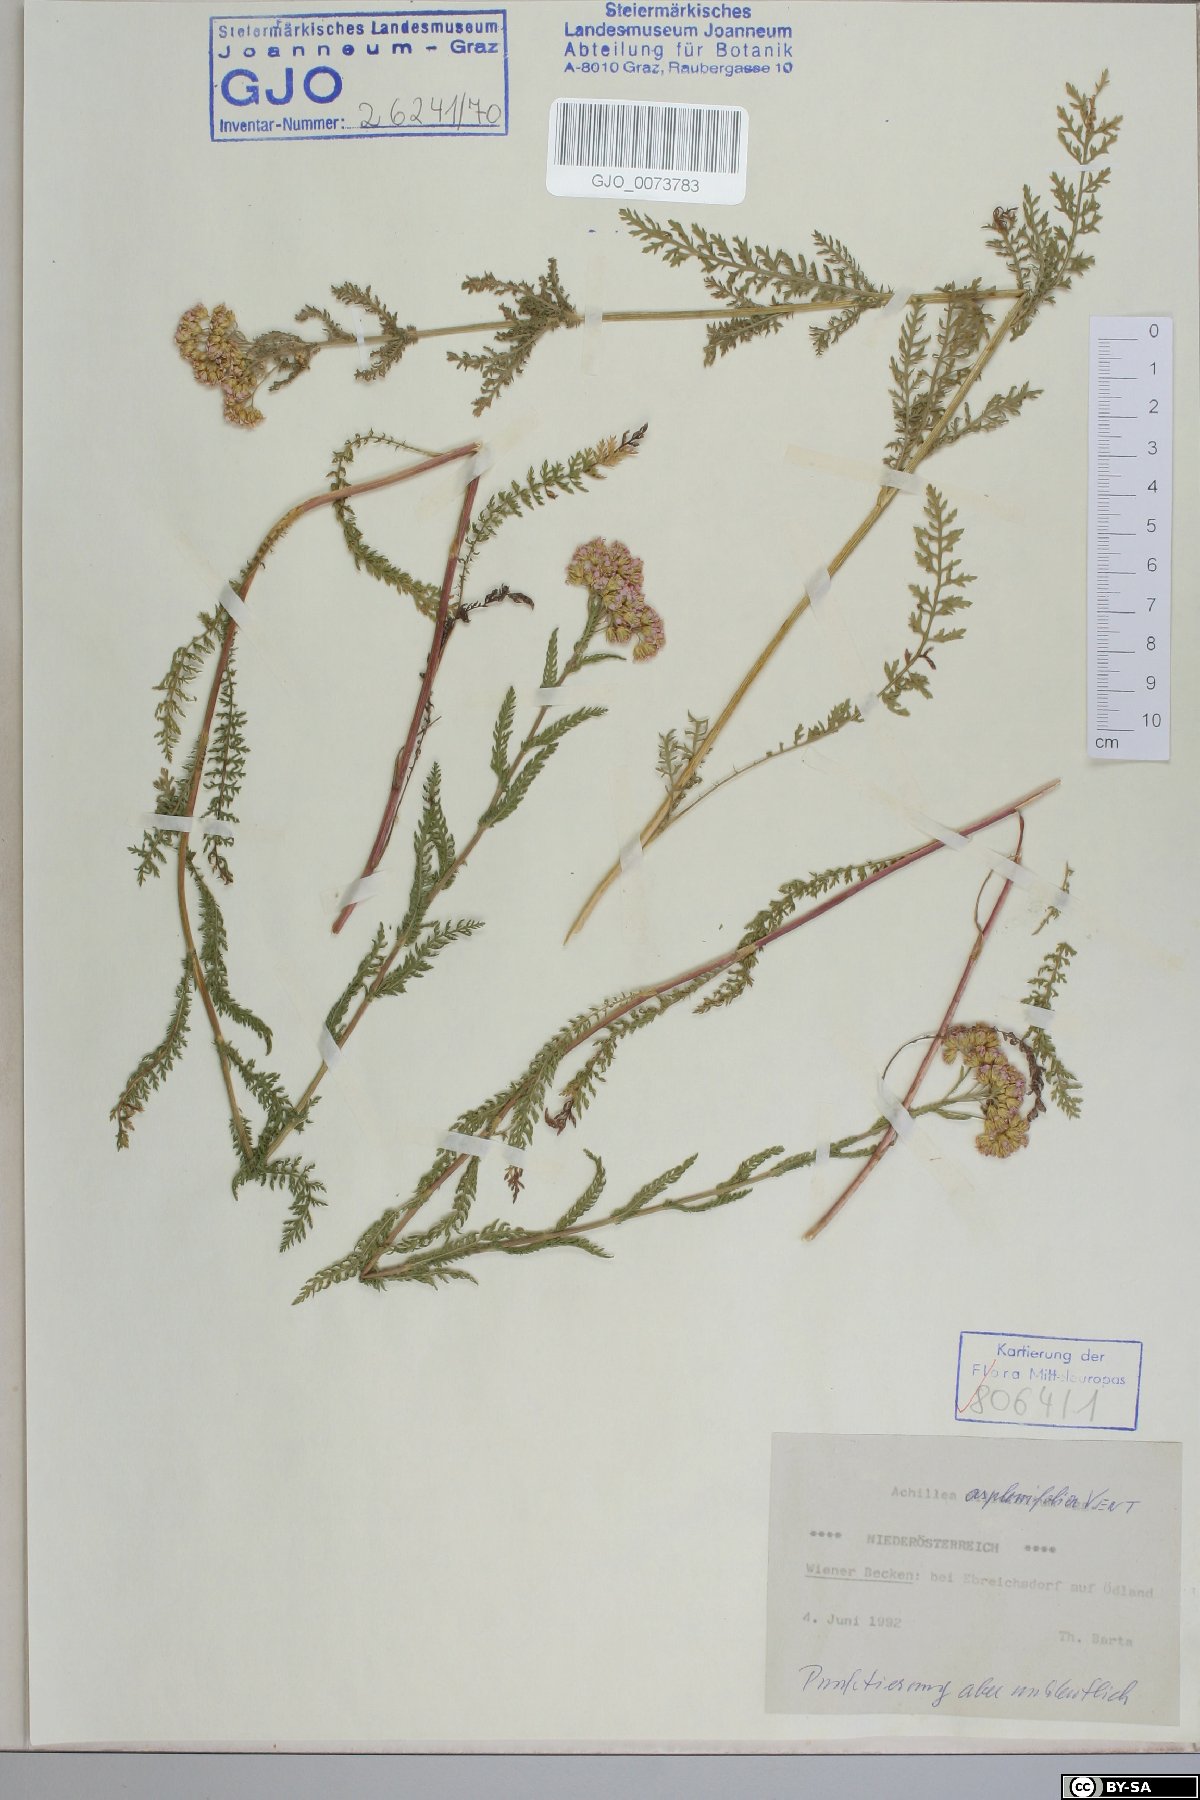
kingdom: Plantae
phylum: Tracheophyta
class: Magnoliopsida
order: Asterales
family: Asteraceae
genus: Achillea
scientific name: Achillea aspleniifolia
